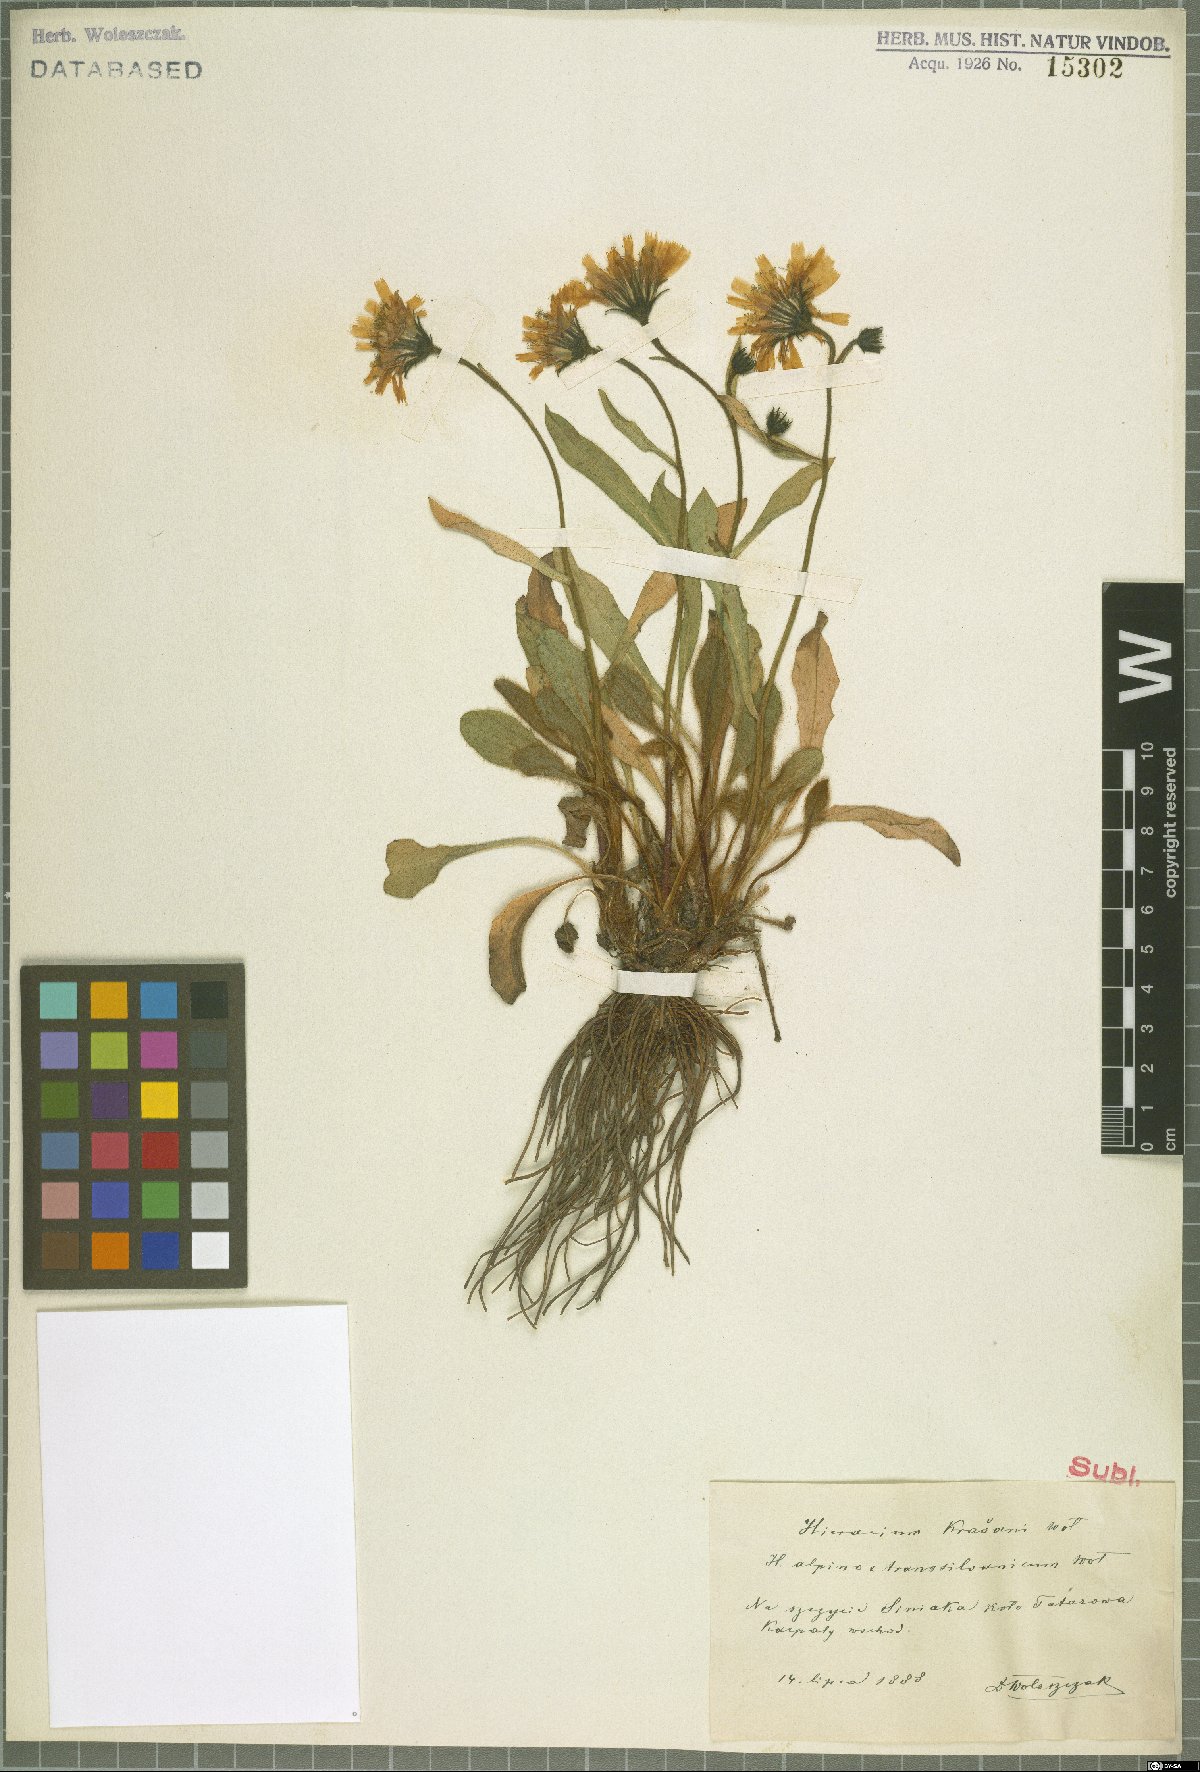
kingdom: Plantae
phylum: Tracheophyta
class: Magnoliopsida
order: Asterales
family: Asteraceae
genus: Hieracium
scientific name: Hieracium krasanii
